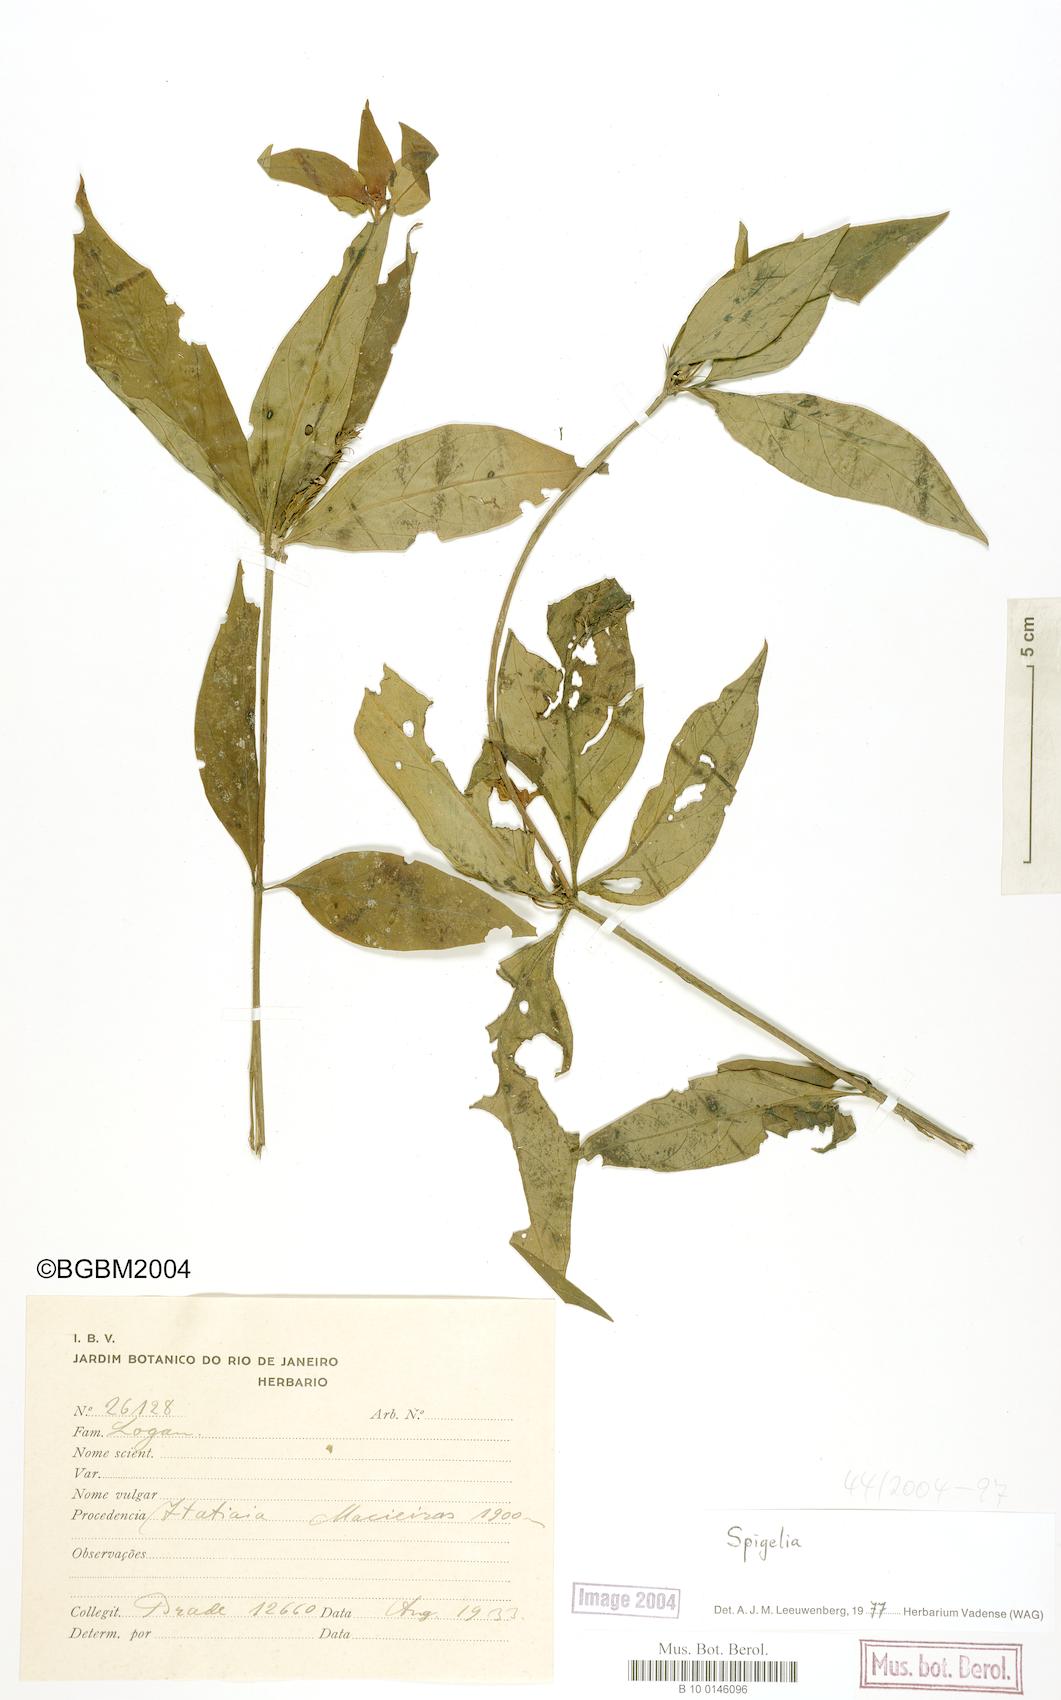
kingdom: Plantae
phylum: Tracheophyta
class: Magnoliopsida
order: Gentianales
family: Loganiaceae
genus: Spigelia
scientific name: Spigelia
